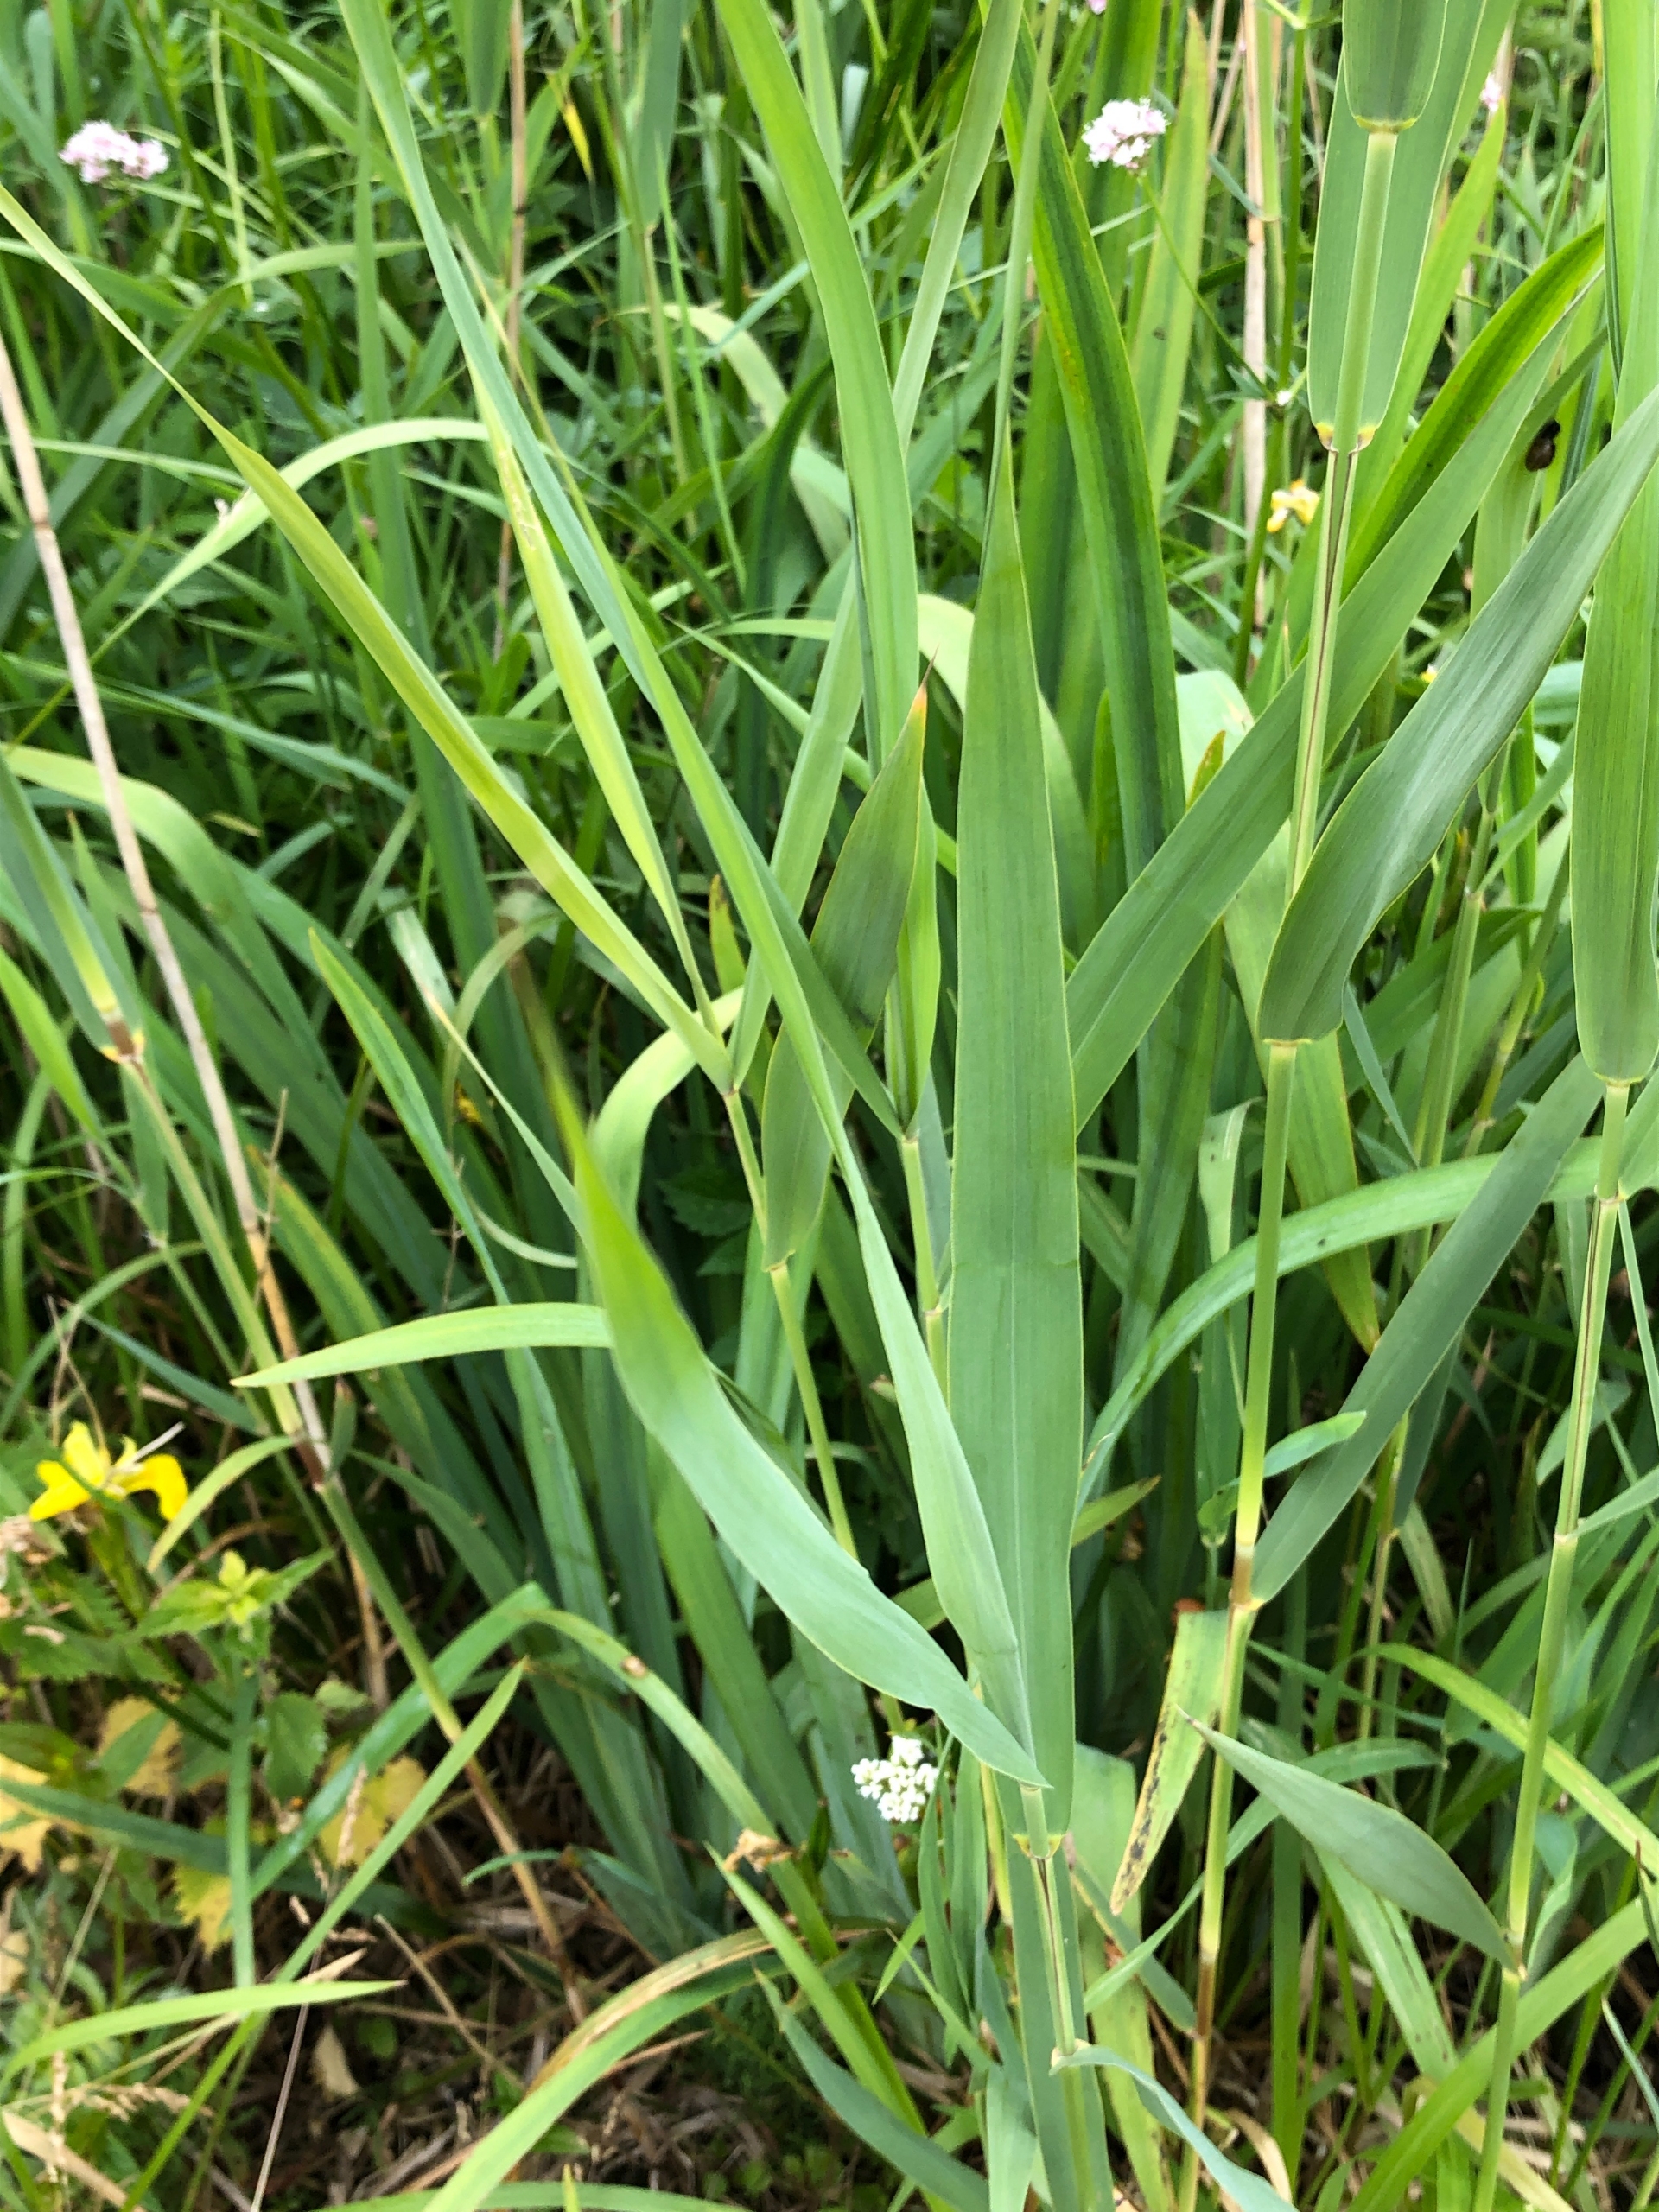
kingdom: Plantae
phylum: Tracheophyta
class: Liliopsida
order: Poales
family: Poaceae
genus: Phragmites
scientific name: Phragmites australis
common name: Tagrør
